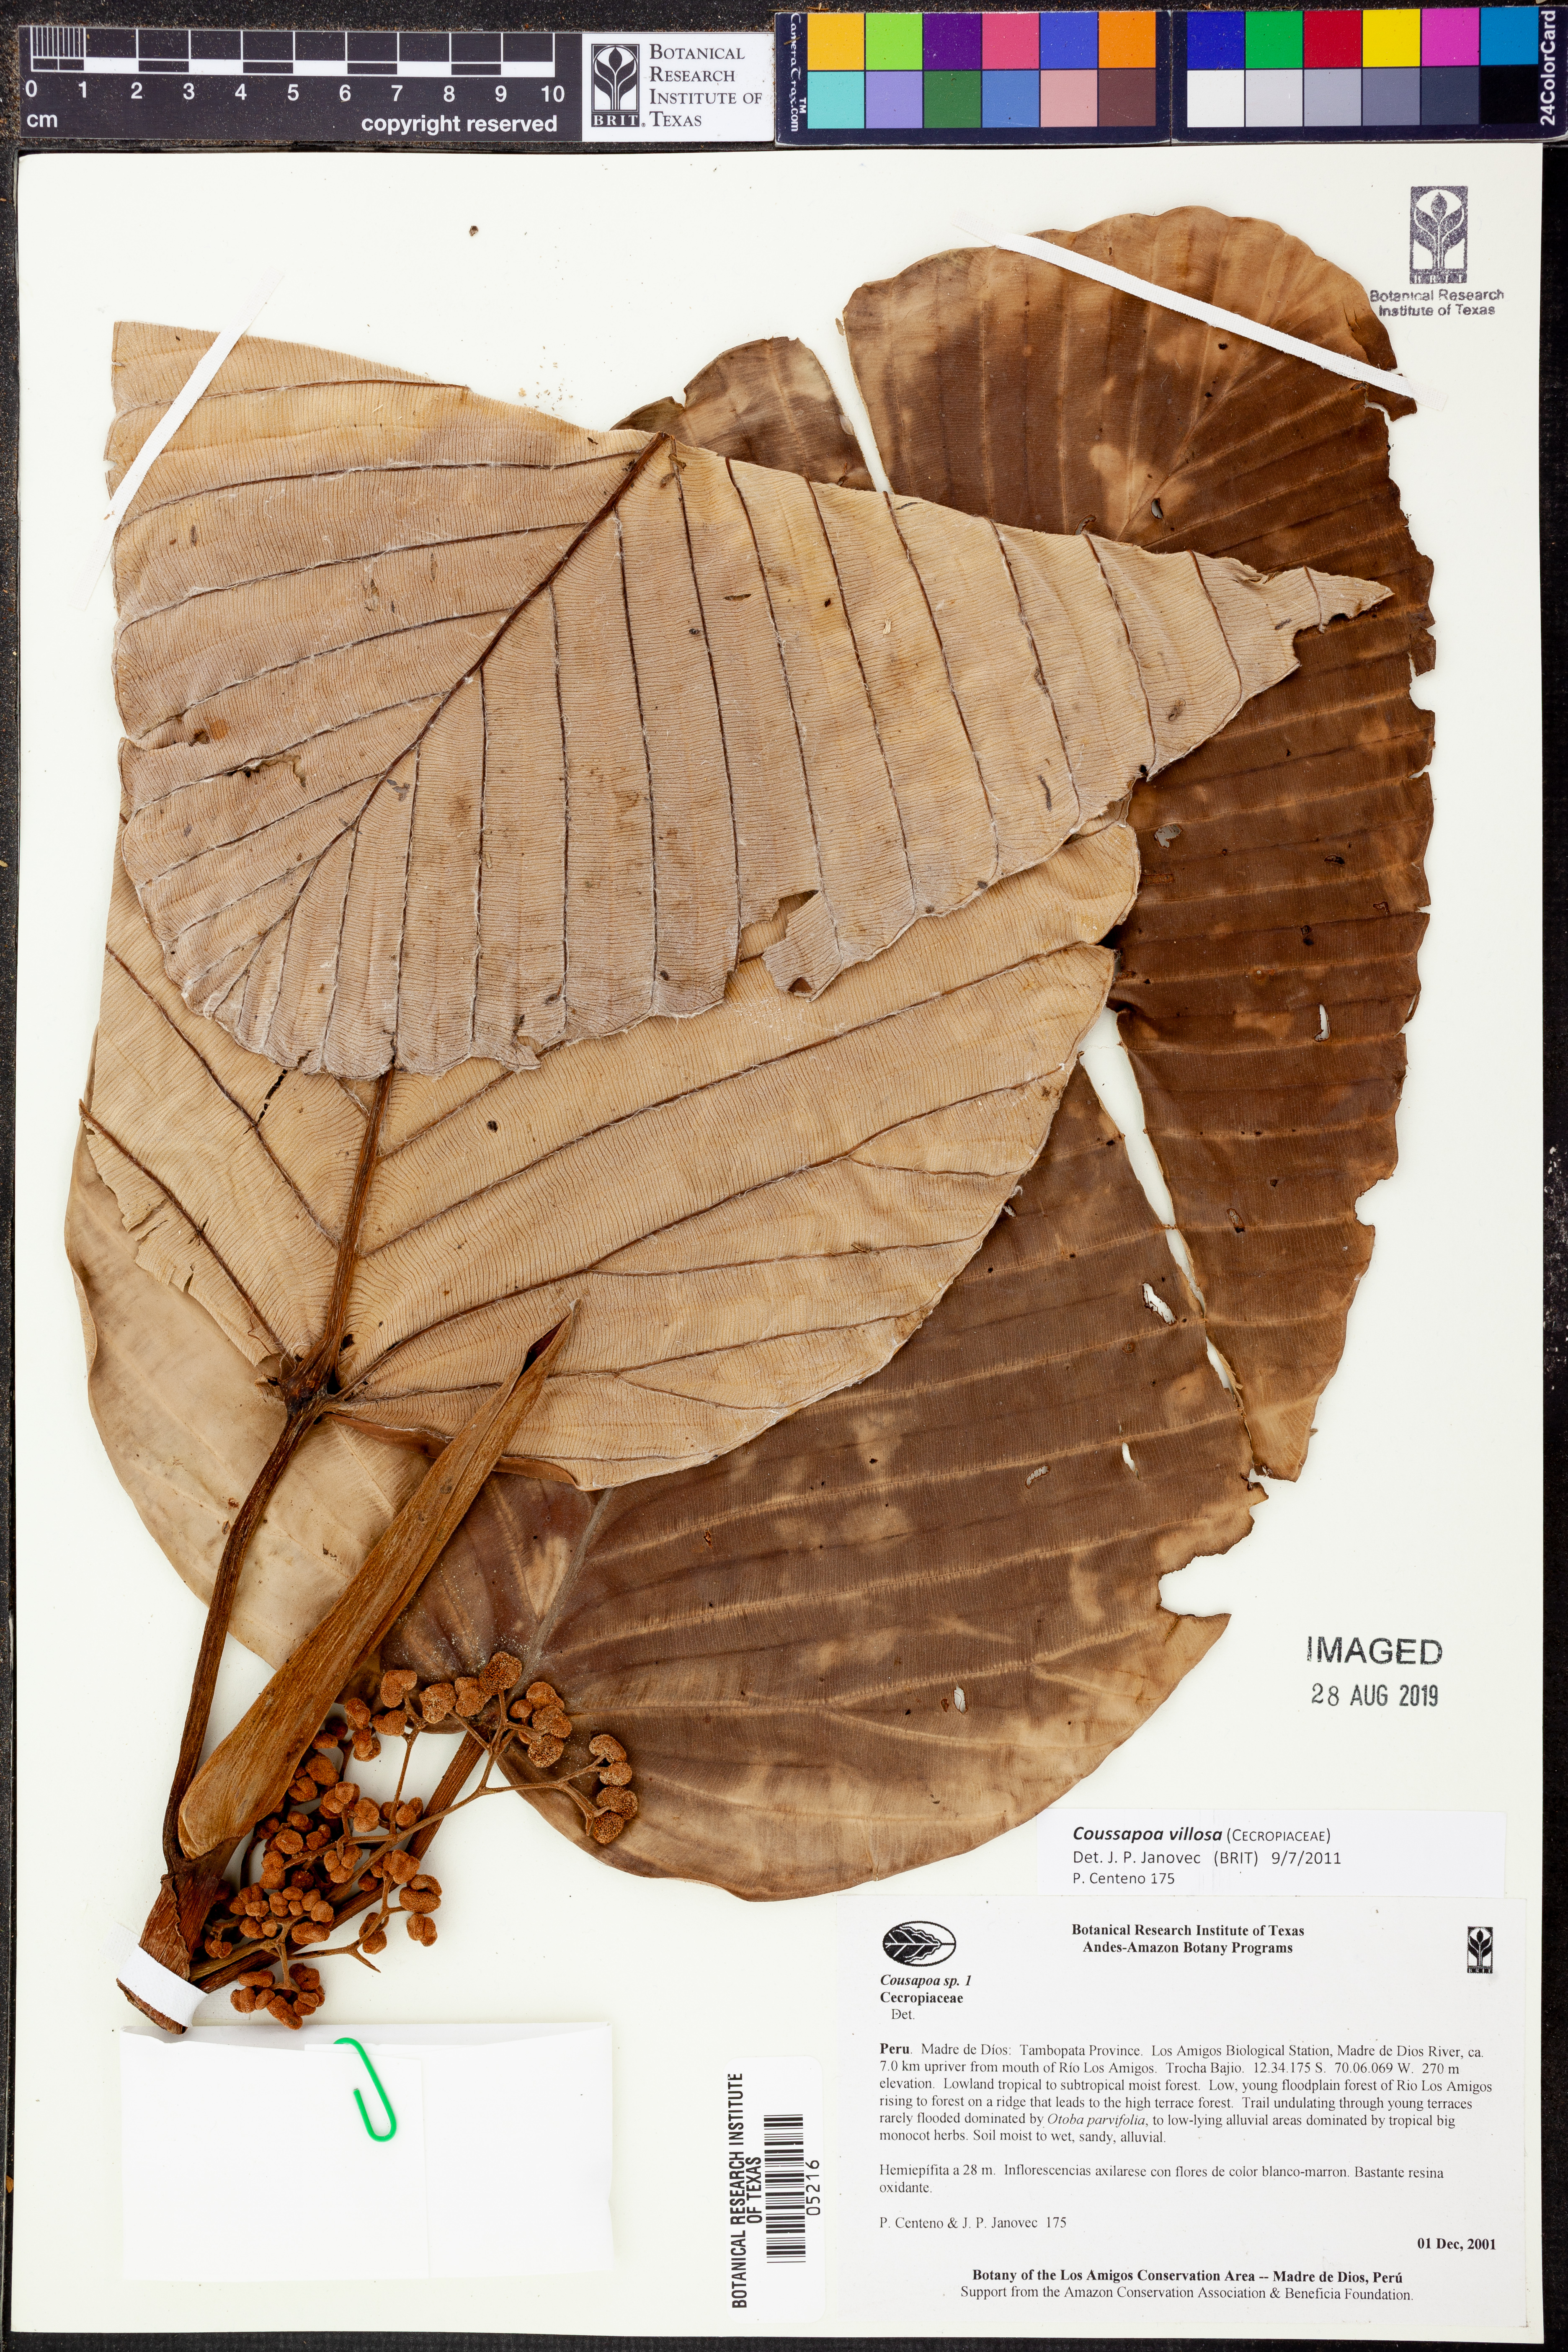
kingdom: Plantae
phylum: Tracheophyta
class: Magnoliopsida
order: Rosales
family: Urticaceae
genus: Coussapoa
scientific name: Coussapoa
